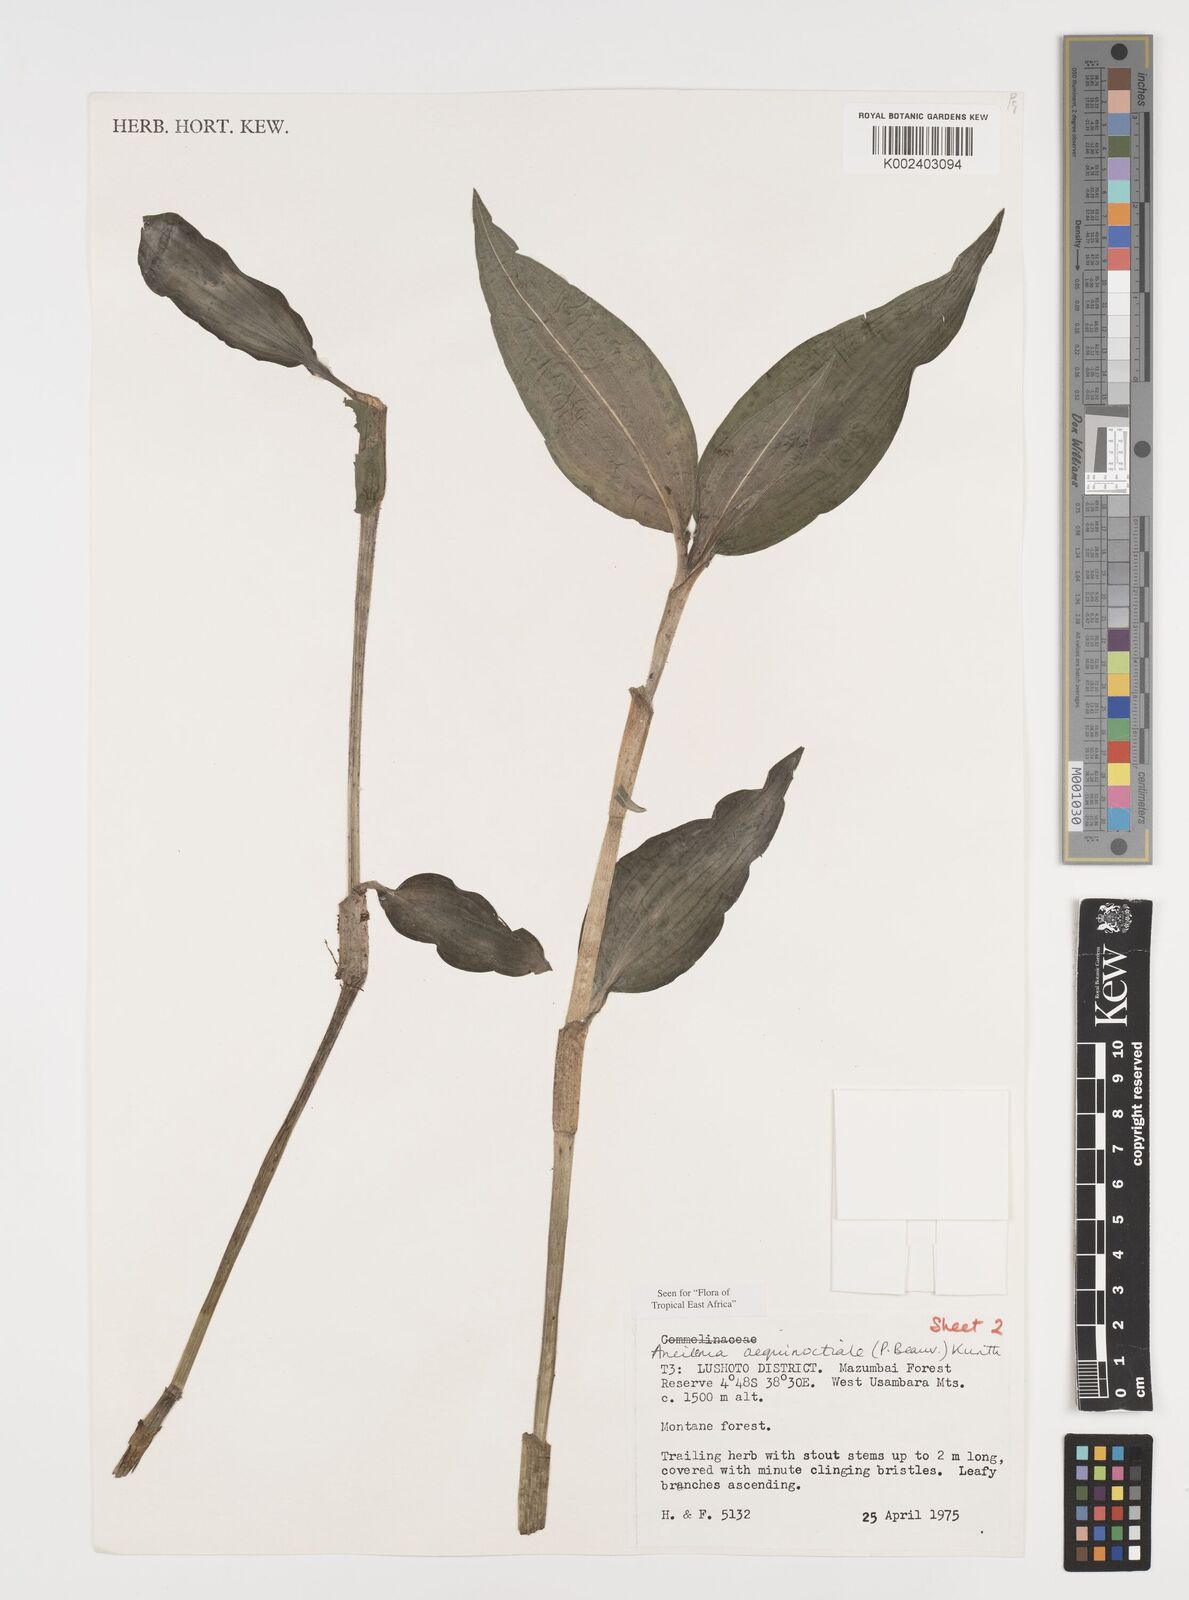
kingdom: Plantae
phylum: Tracheophyta
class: Liliopsida
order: Commelinales
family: Commelinaceae
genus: Aneilema
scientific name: Aneilema aequinoctiale
